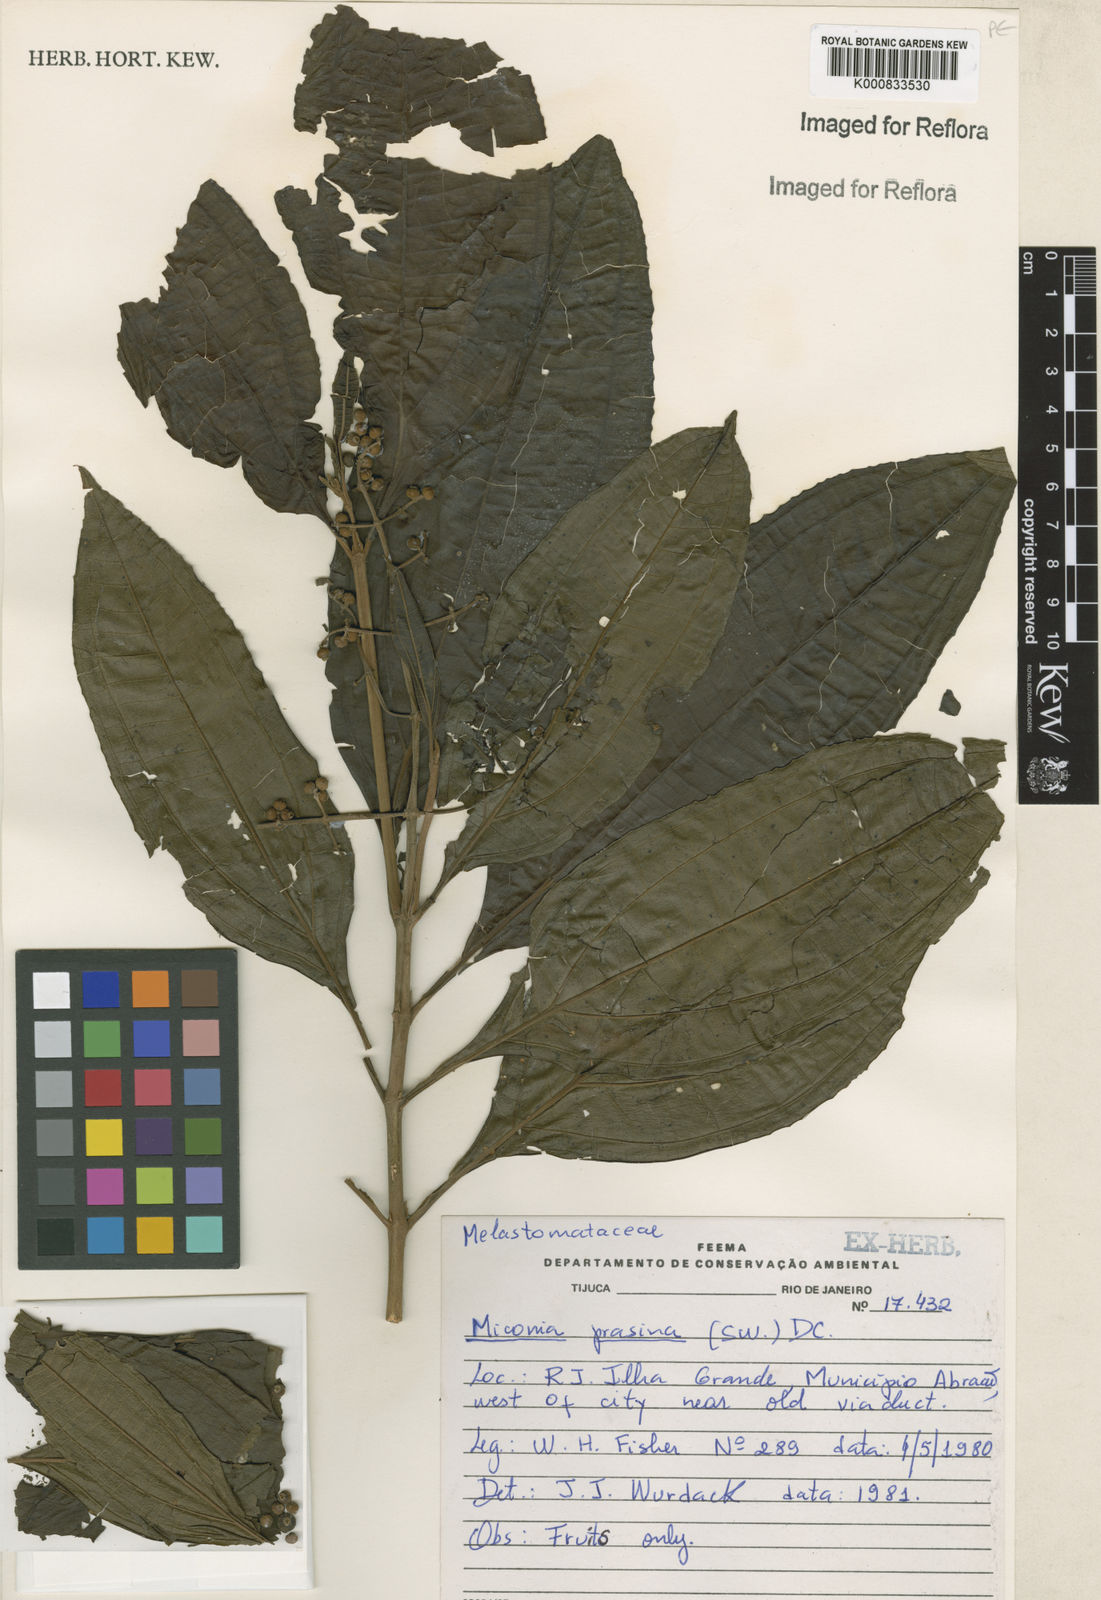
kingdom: Plantae
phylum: Tracheophyta
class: Magnoliopsida
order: Myrtales
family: Melastomataceae
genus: Miconia
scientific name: Miconia prasina
